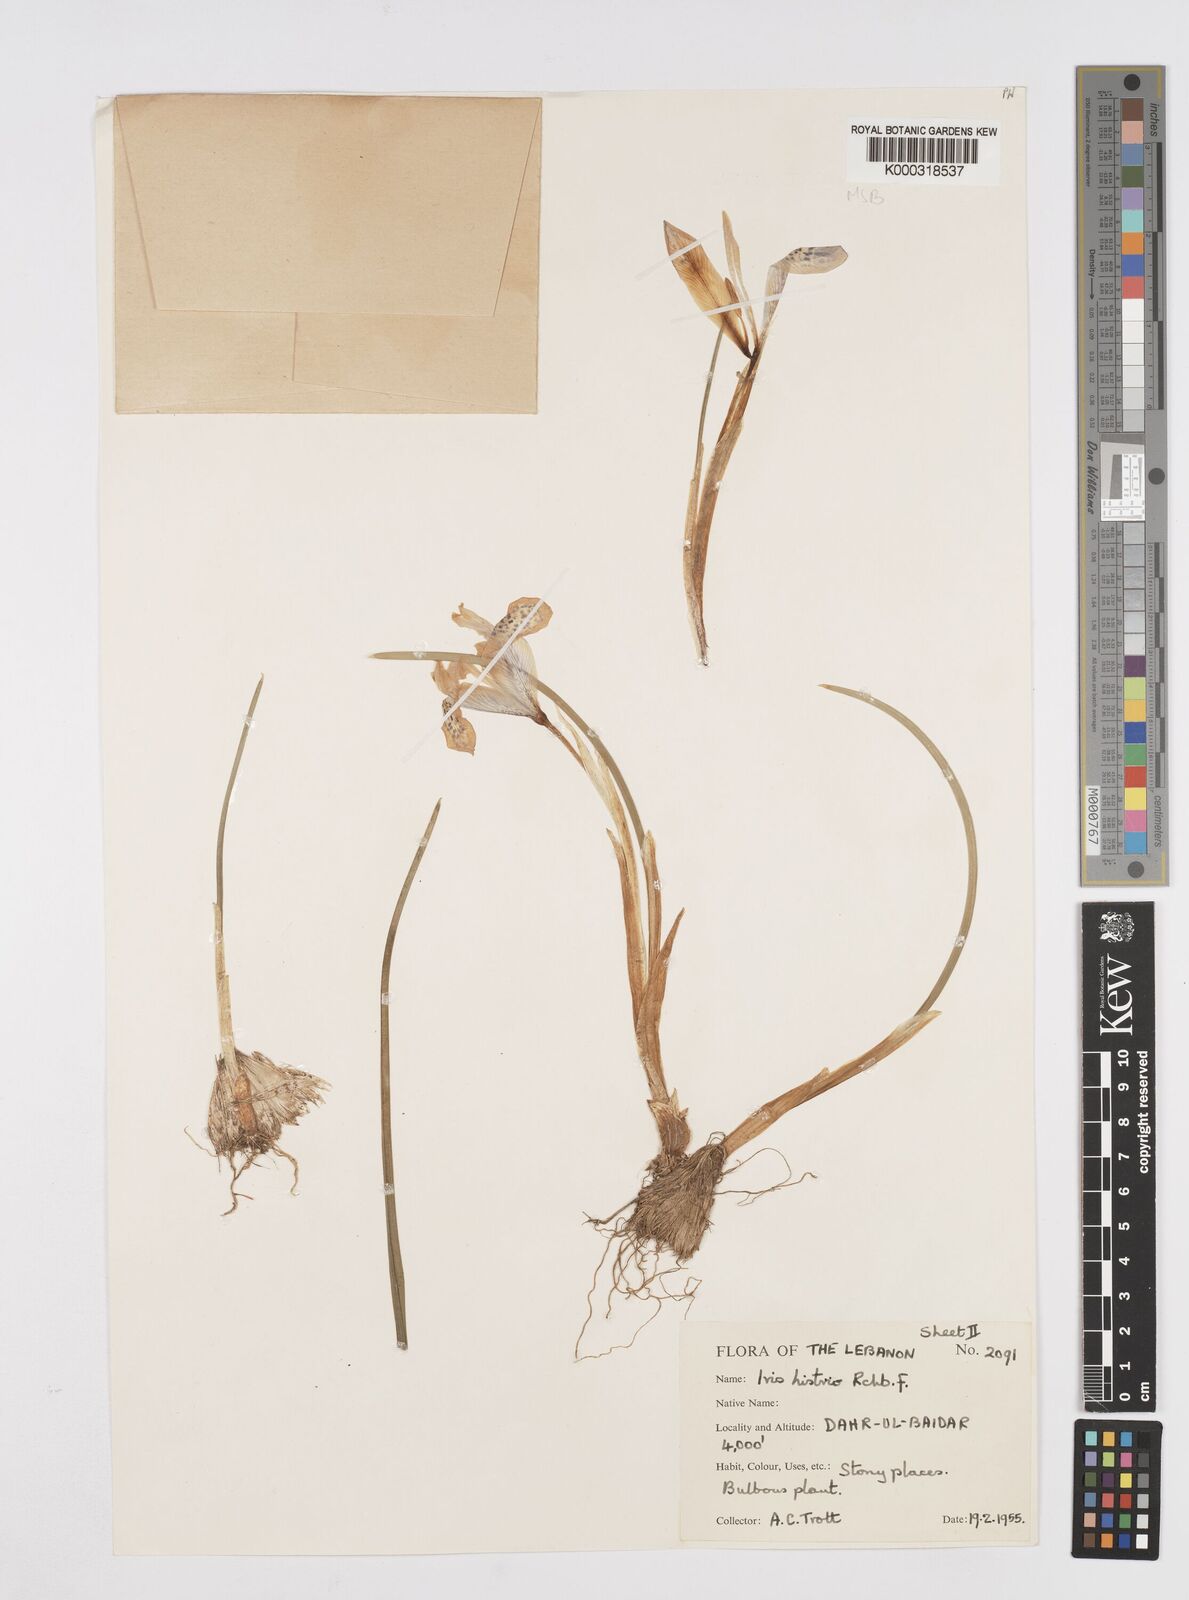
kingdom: Plantae
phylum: Tracheophyta
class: Liliopsida
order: Asparagales
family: Iridaceae
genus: Iris
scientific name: Iris histrio
